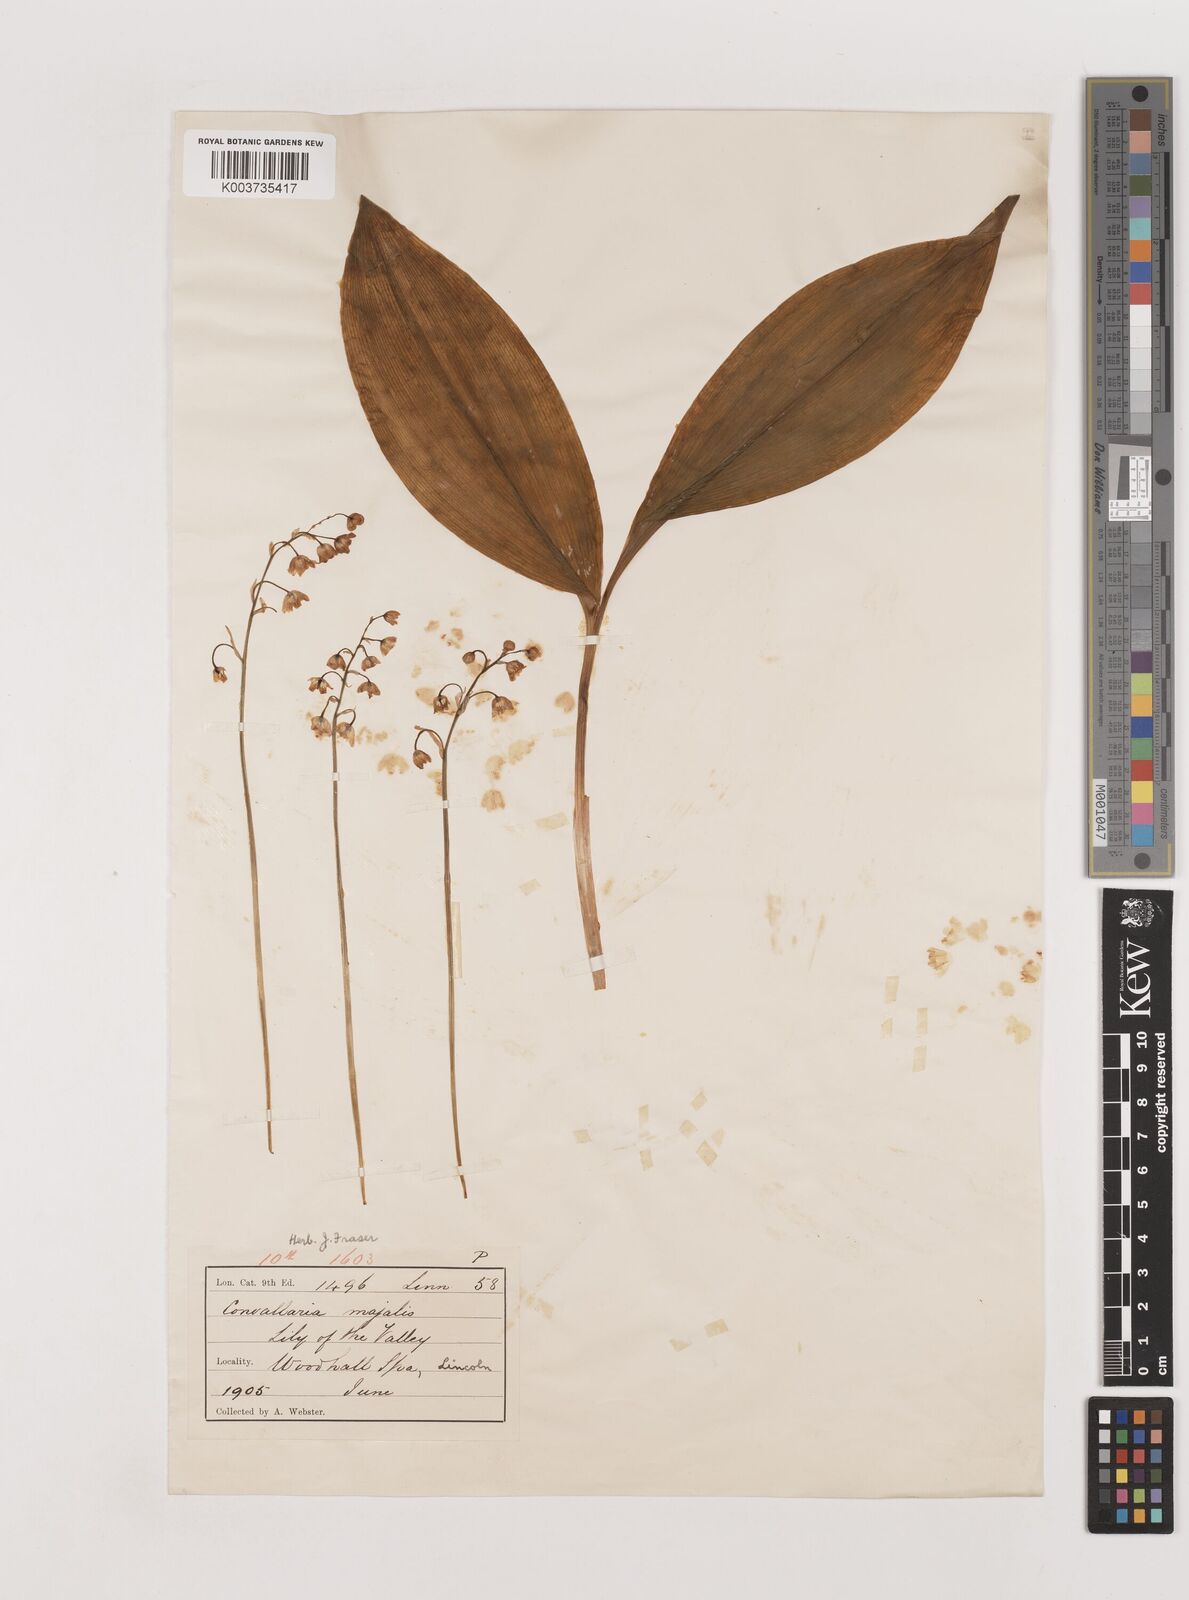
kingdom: Plantae
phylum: Tracheophyta
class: Liliopsida
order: Asparagales
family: Asparagaceae
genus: Convallaria
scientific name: Convallaria majalis
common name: Lily-of-the-valley
